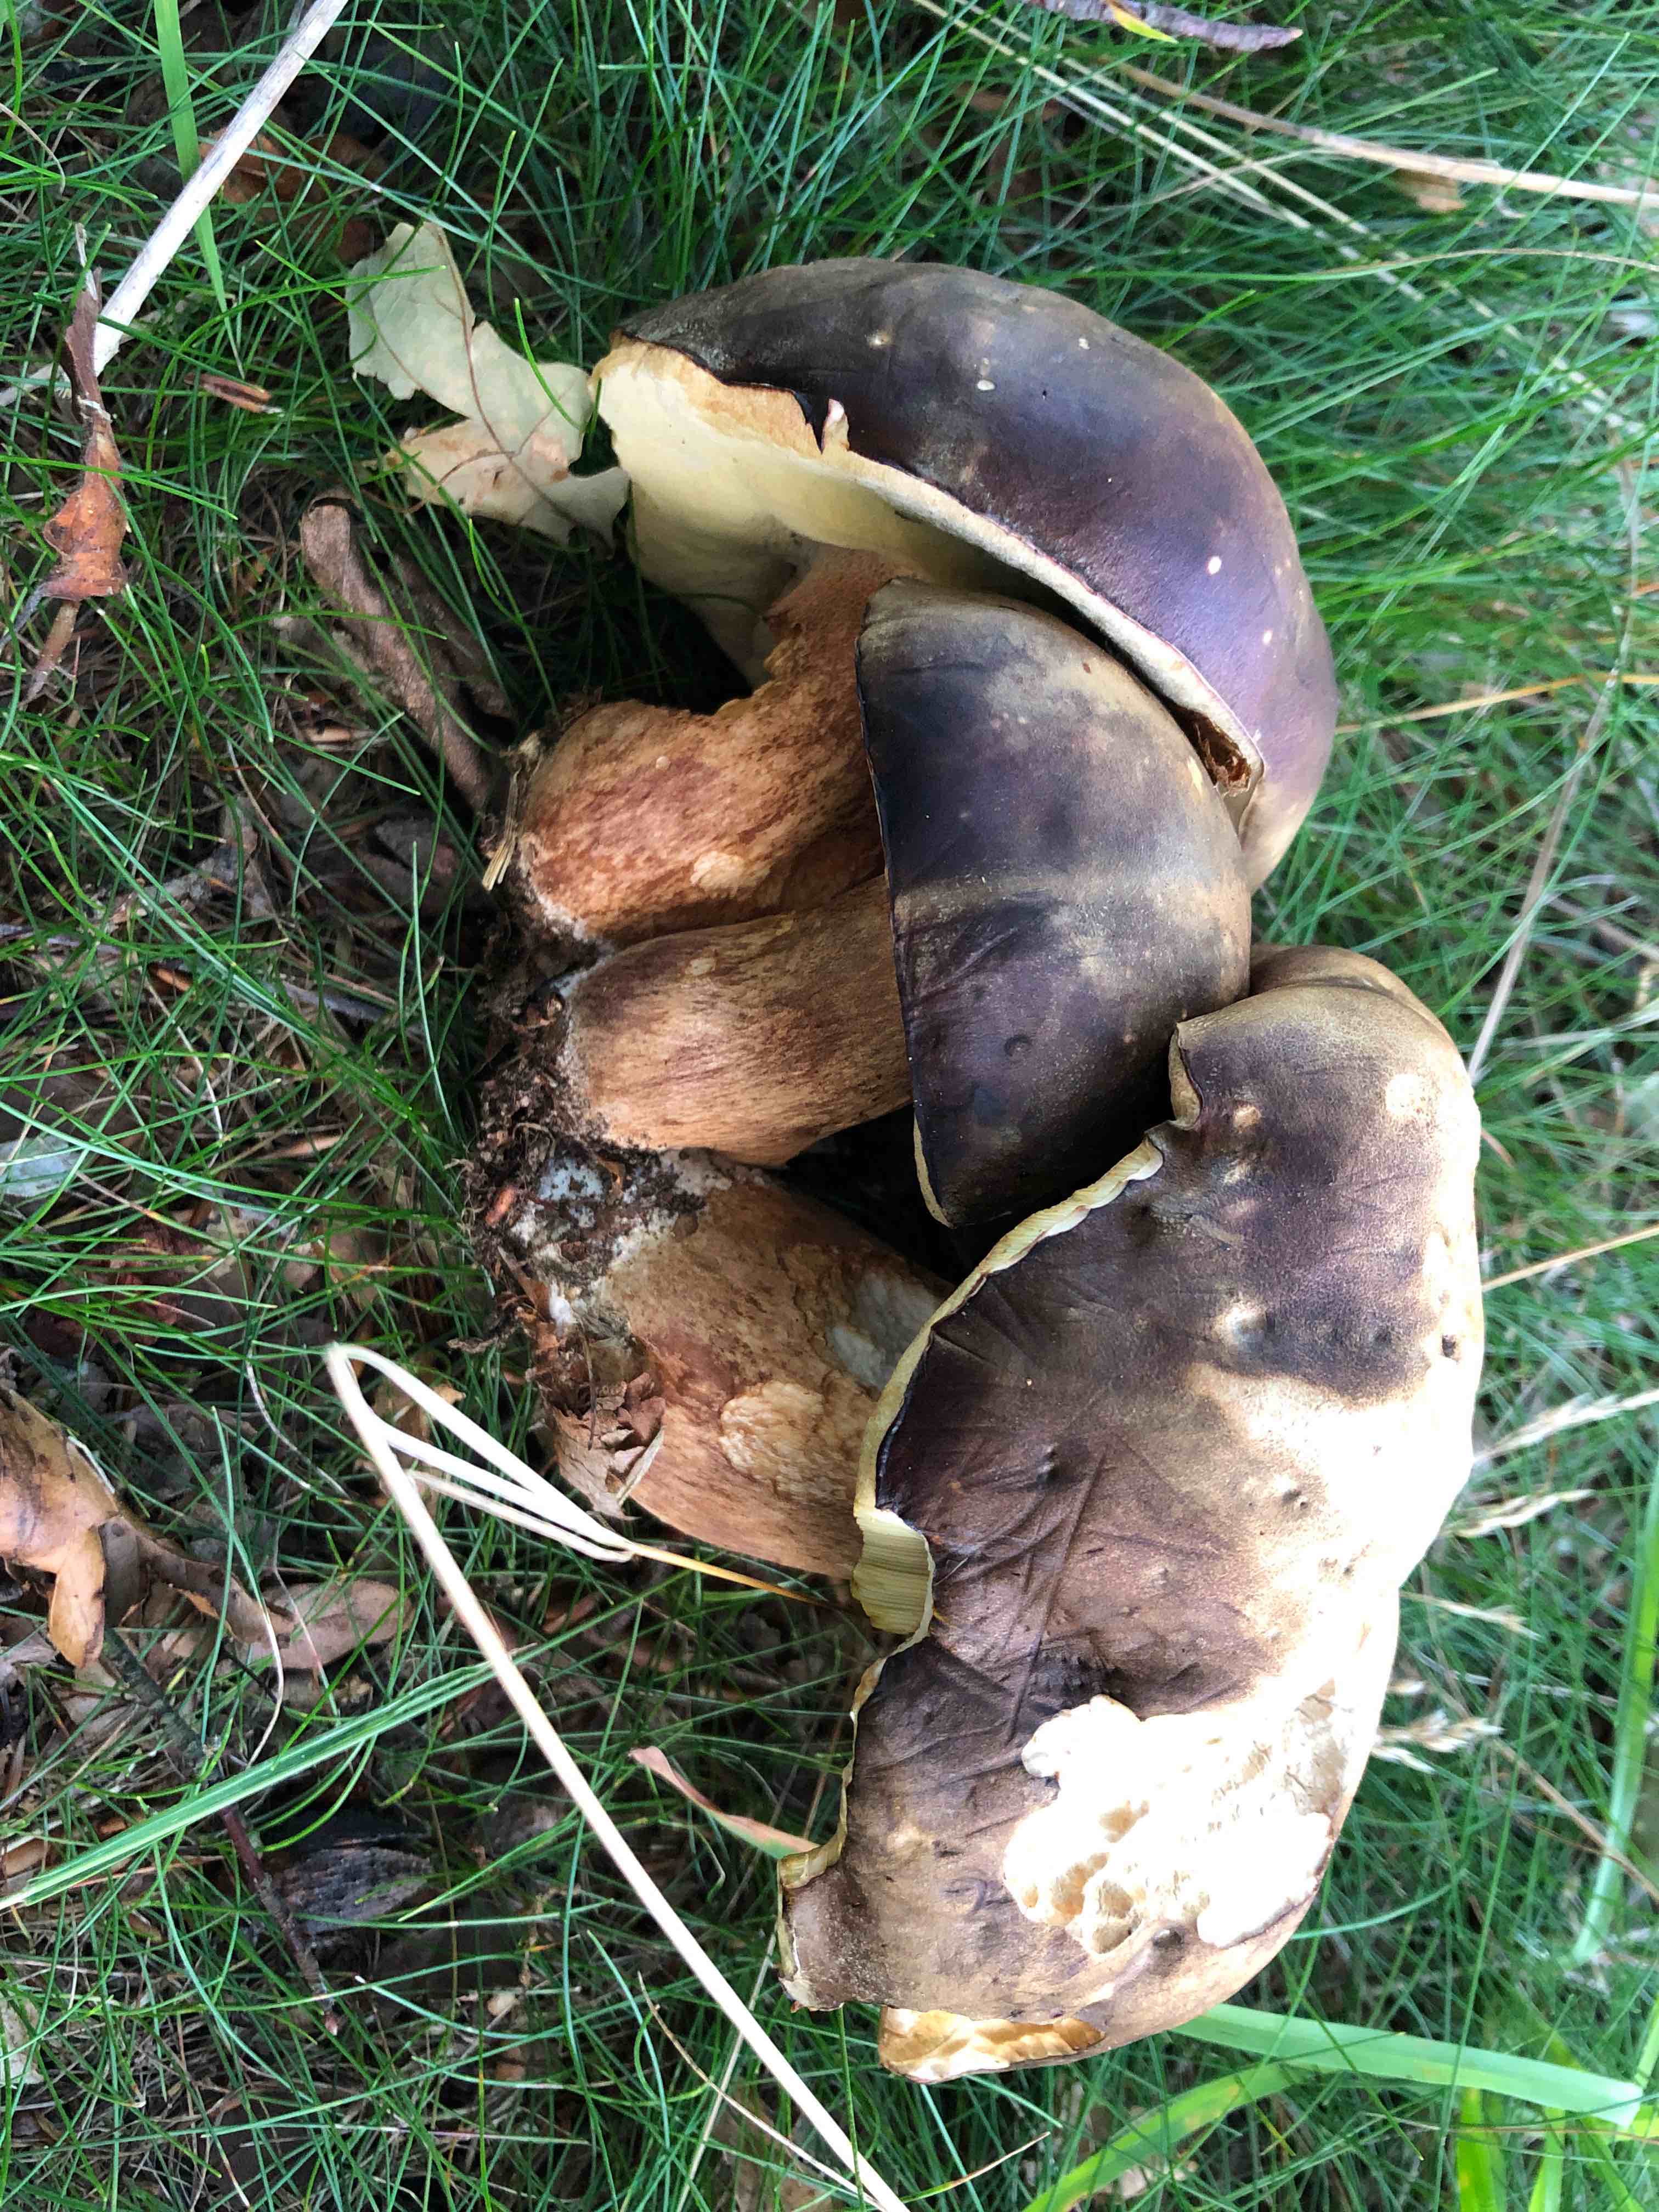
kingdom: Fungi
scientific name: Fungi
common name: bronze-rørhat
